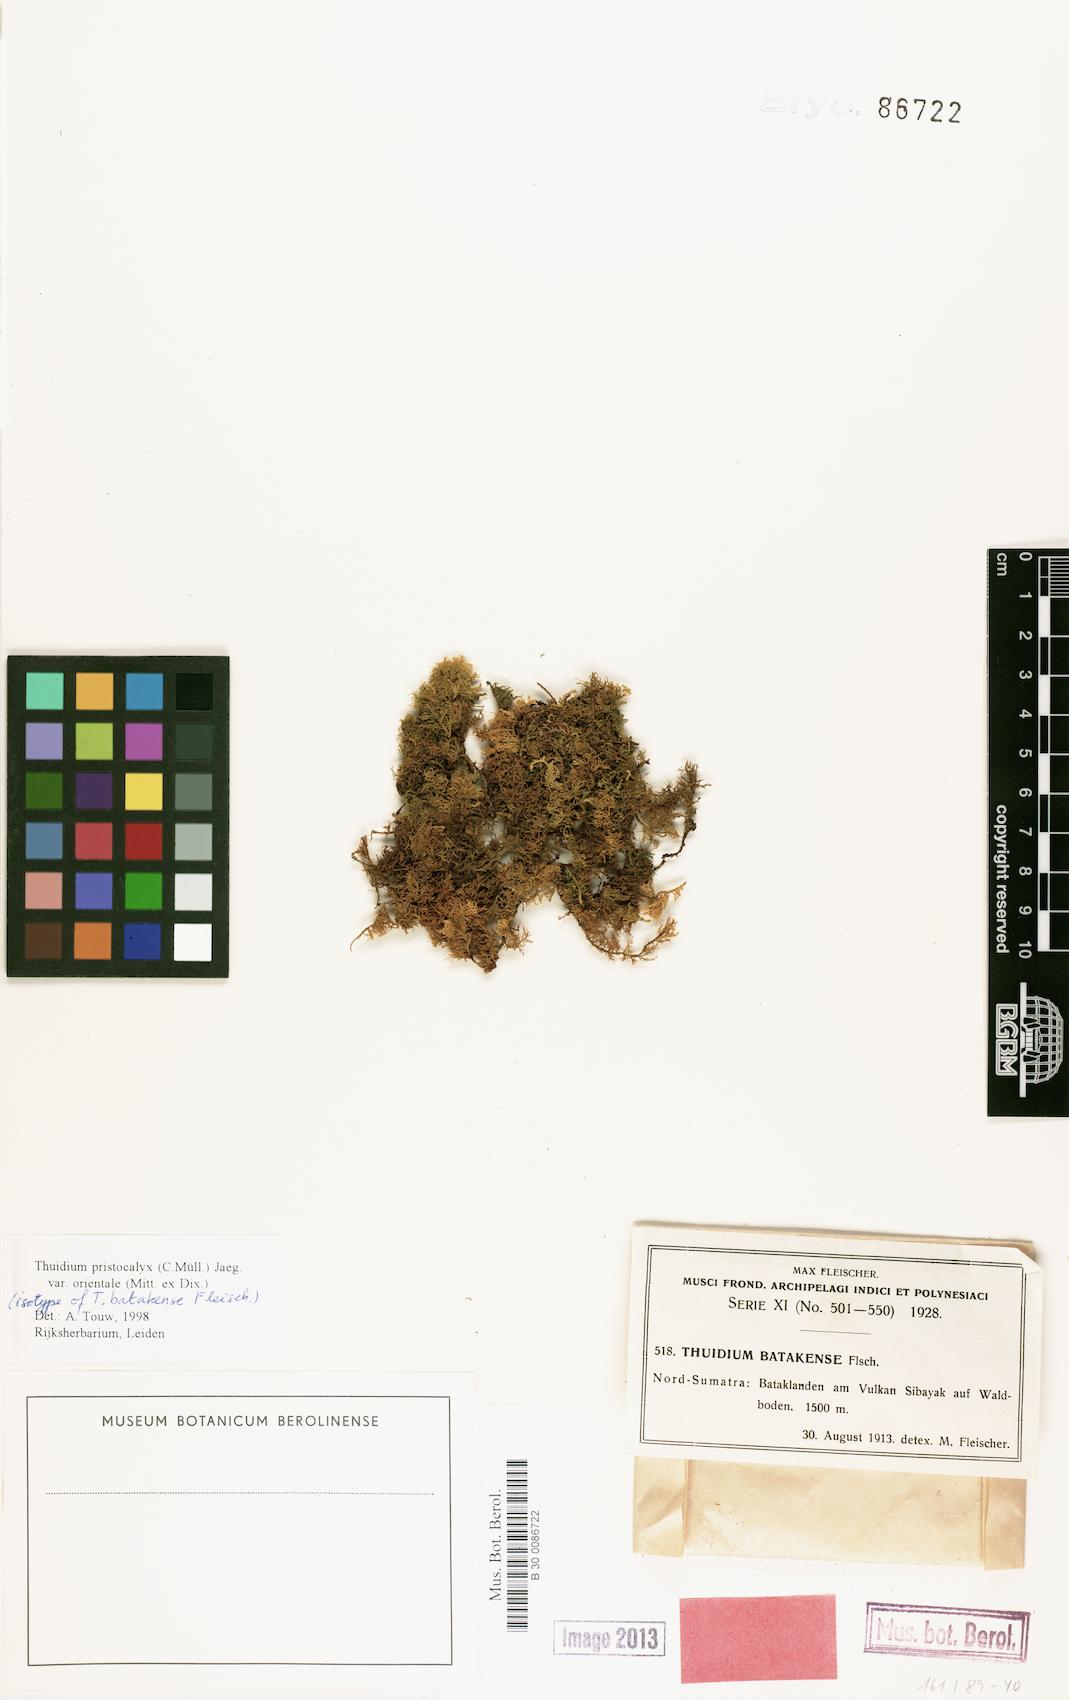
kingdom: Plantae
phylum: Bryophyta
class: Bryopsida
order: Hypnales
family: Thuidiaceae
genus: Thuidium
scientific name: Thuidium pristocalyx
